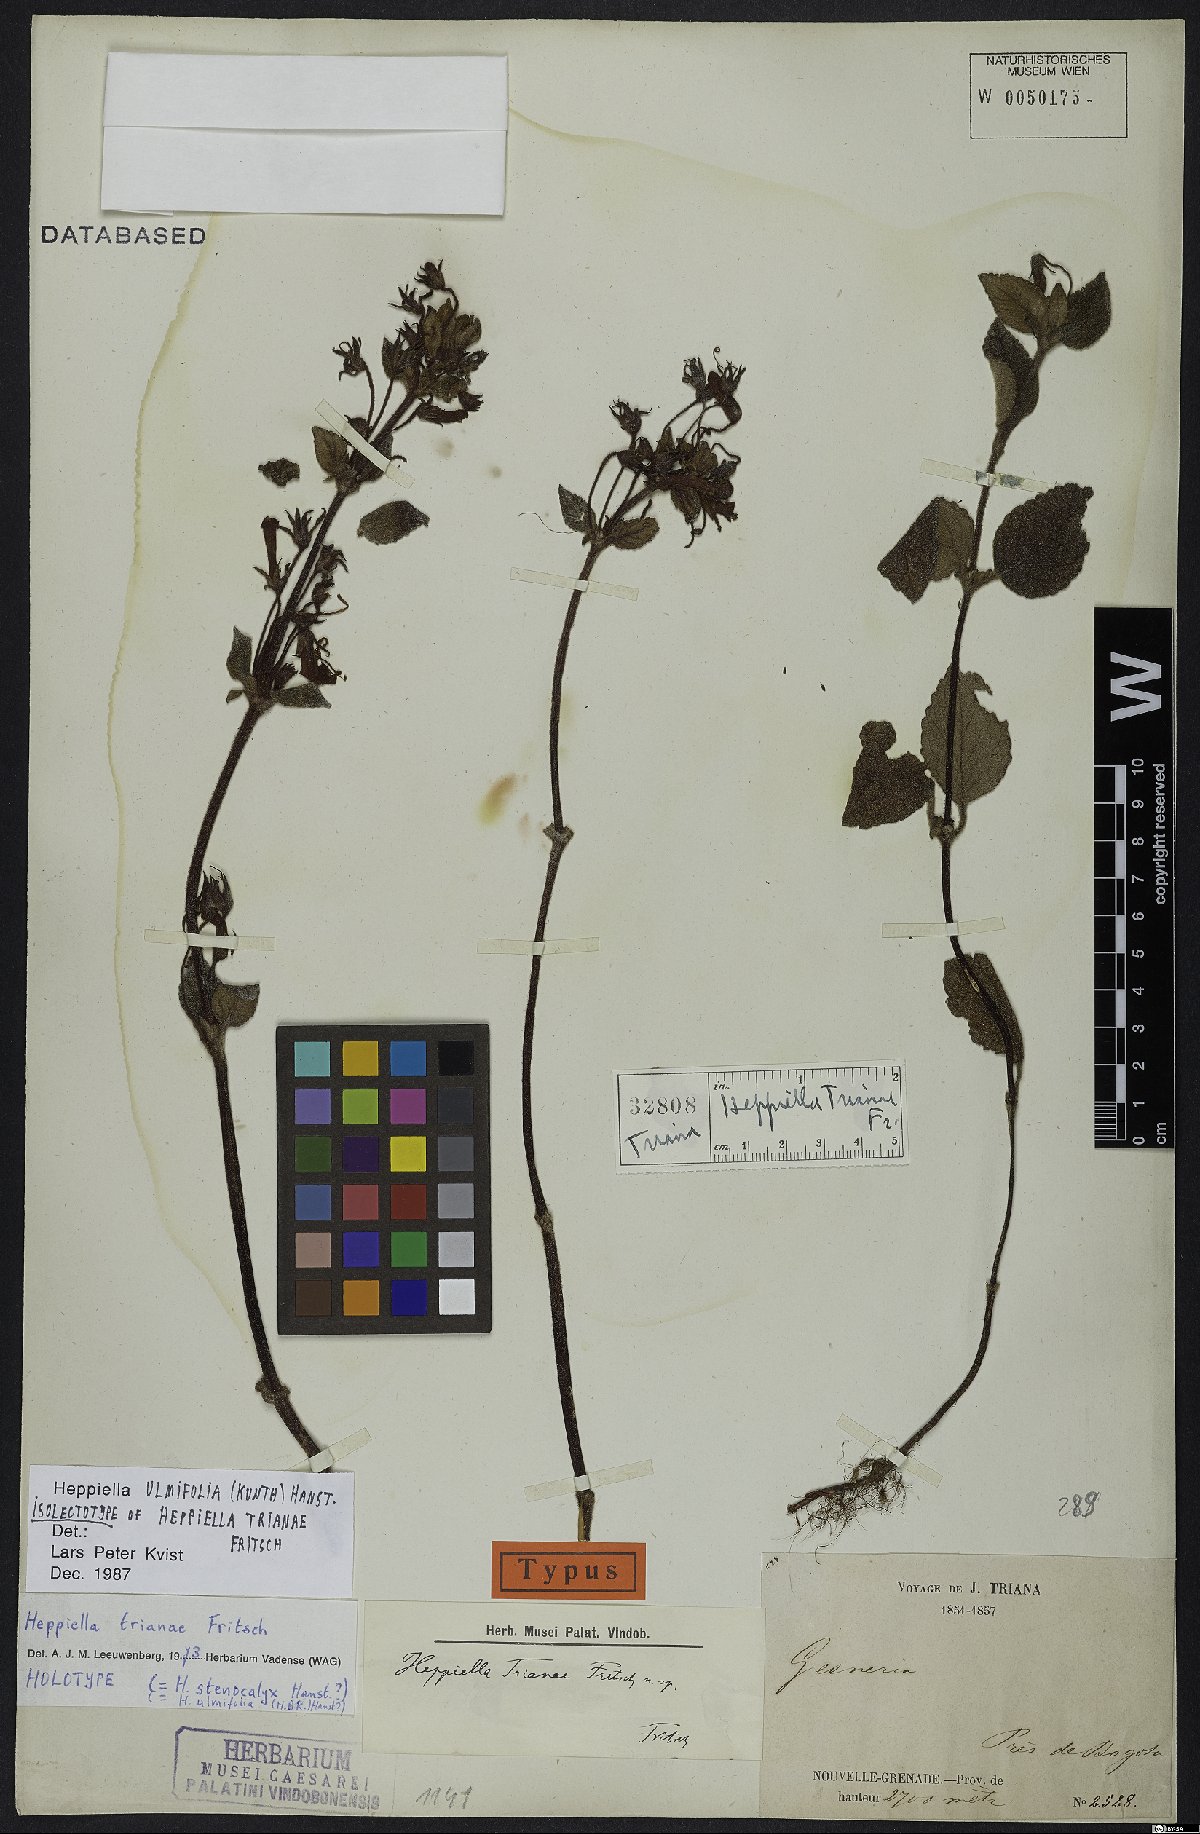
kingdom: Plantae
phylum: Tracheophyta
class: Magnoliopsida
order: Lamiales
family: Gesneriaceae
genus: Heppiella
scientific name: Heppiella ulmifolia
